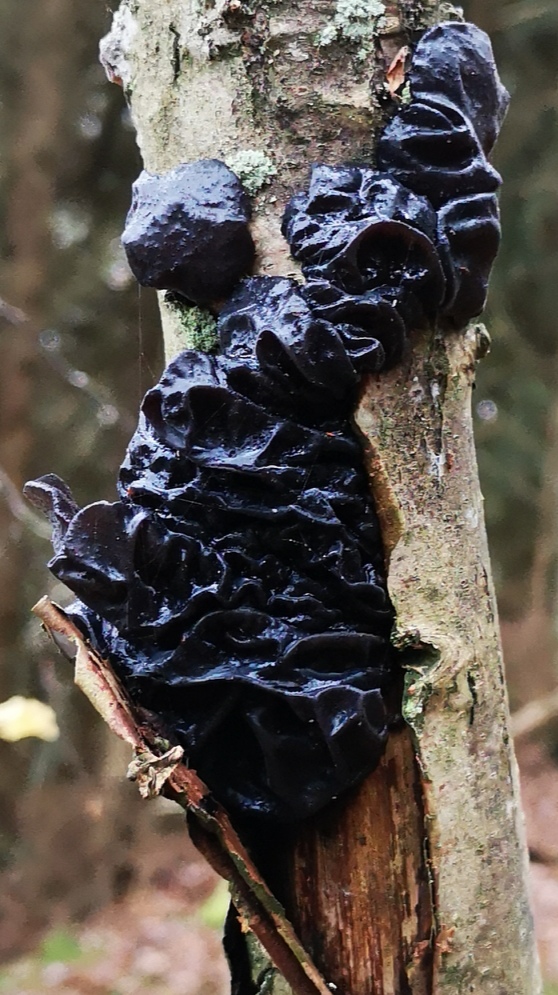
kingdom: Fungi
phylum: Basidiomycota
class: Agaricomycetes
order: Auriculariales
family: Auriculariaceae
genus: Exidia
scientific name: Exidia nigricans
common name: almindelig bævretop
